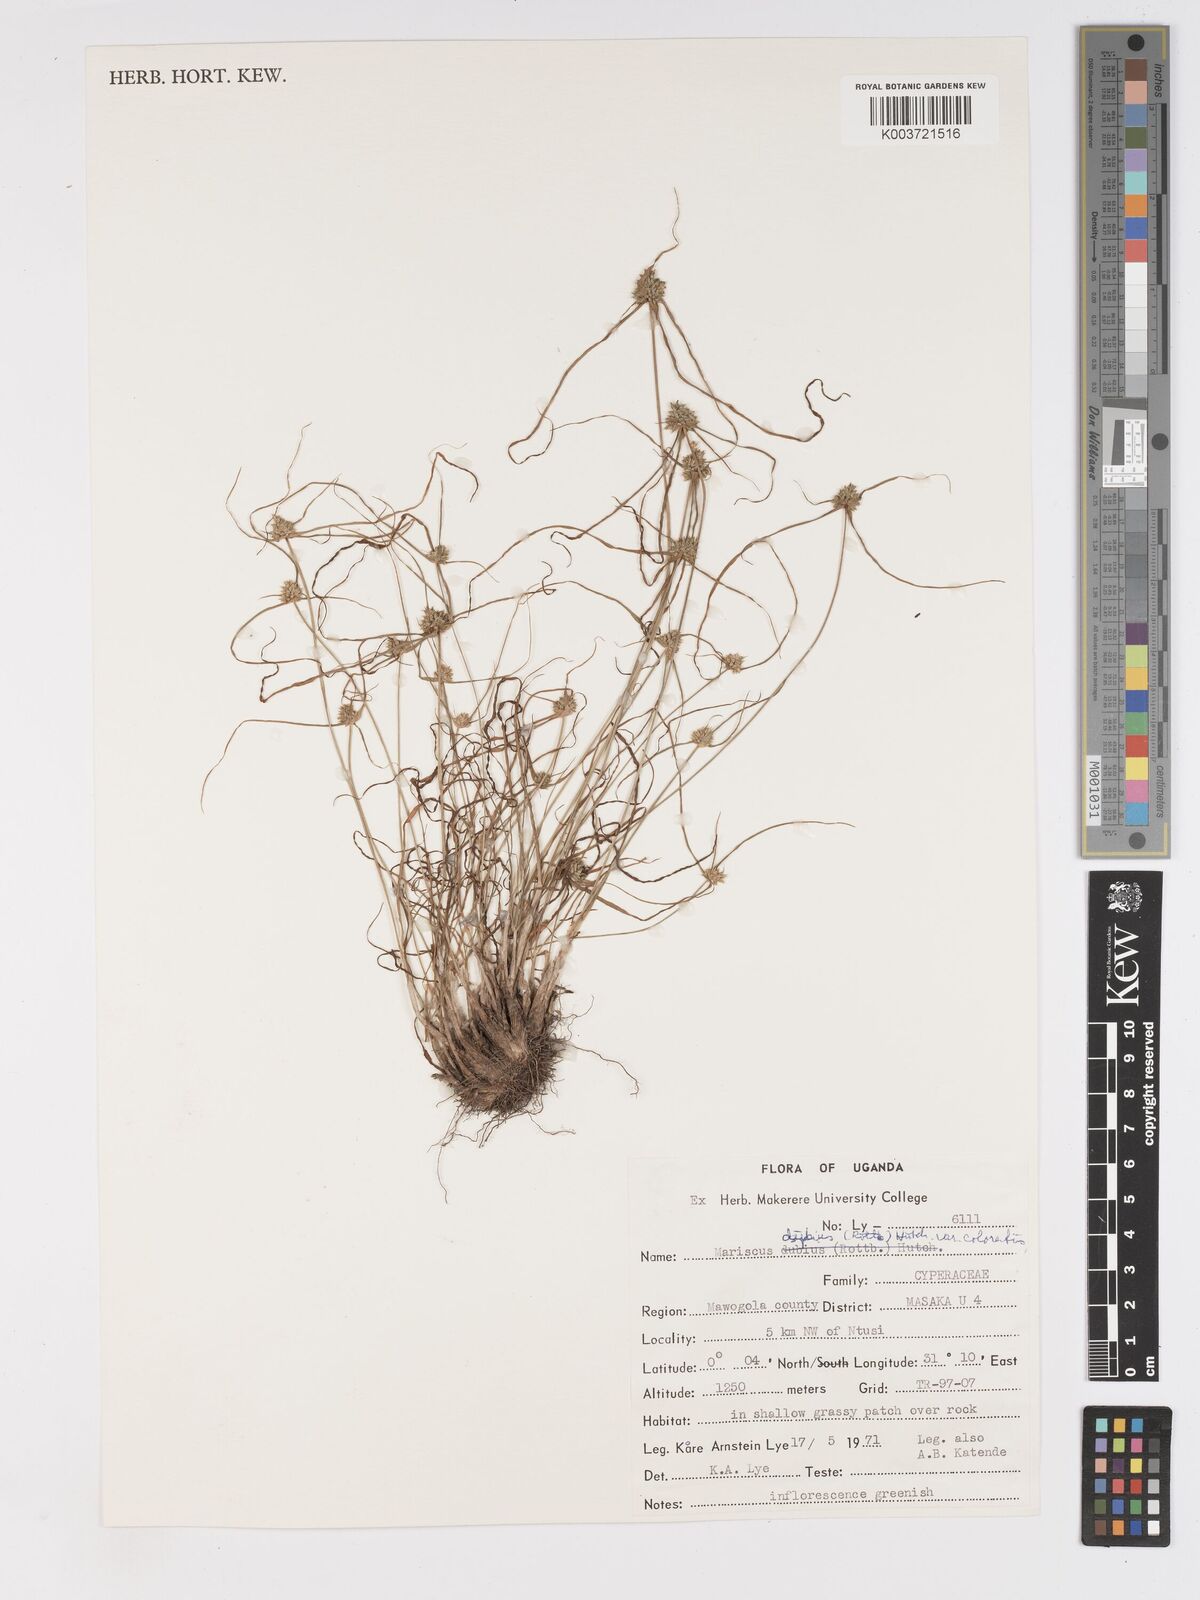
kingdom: Plantae
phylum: Tracheophyta
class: Liliopsida
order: Poales
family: Cyperaceae
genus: Cyperus
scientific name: Cyperus dubius
